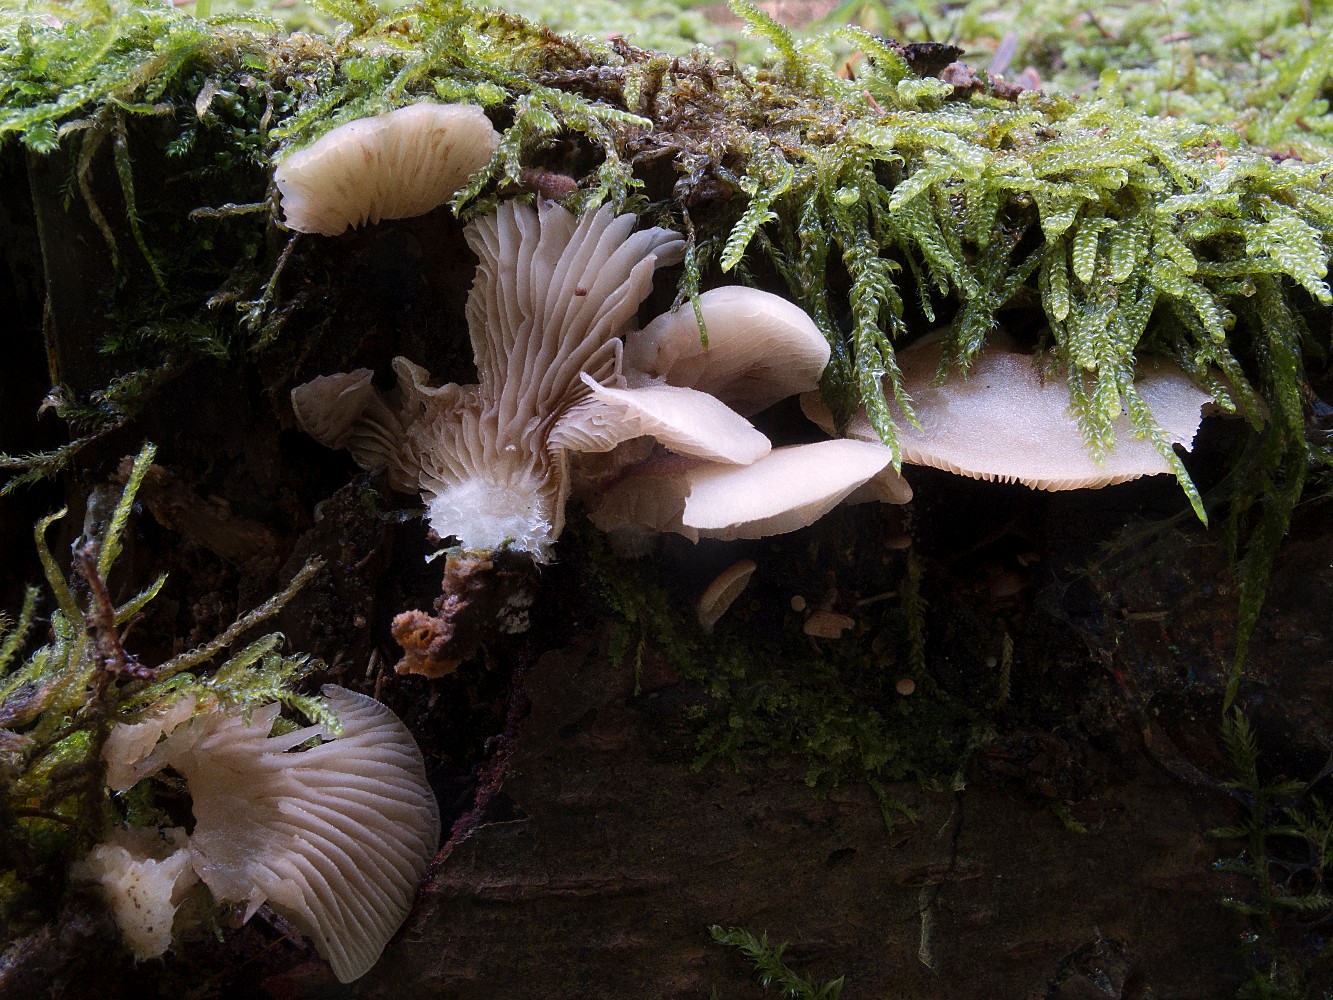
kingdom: Fungi
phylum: Basidiomycota
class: Agaricomycetes
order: Agaricales
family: Crepidotaceae
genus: Crepidotus
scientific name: Crepidotus stenocystis
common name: nåletræs-muslingesvamp
